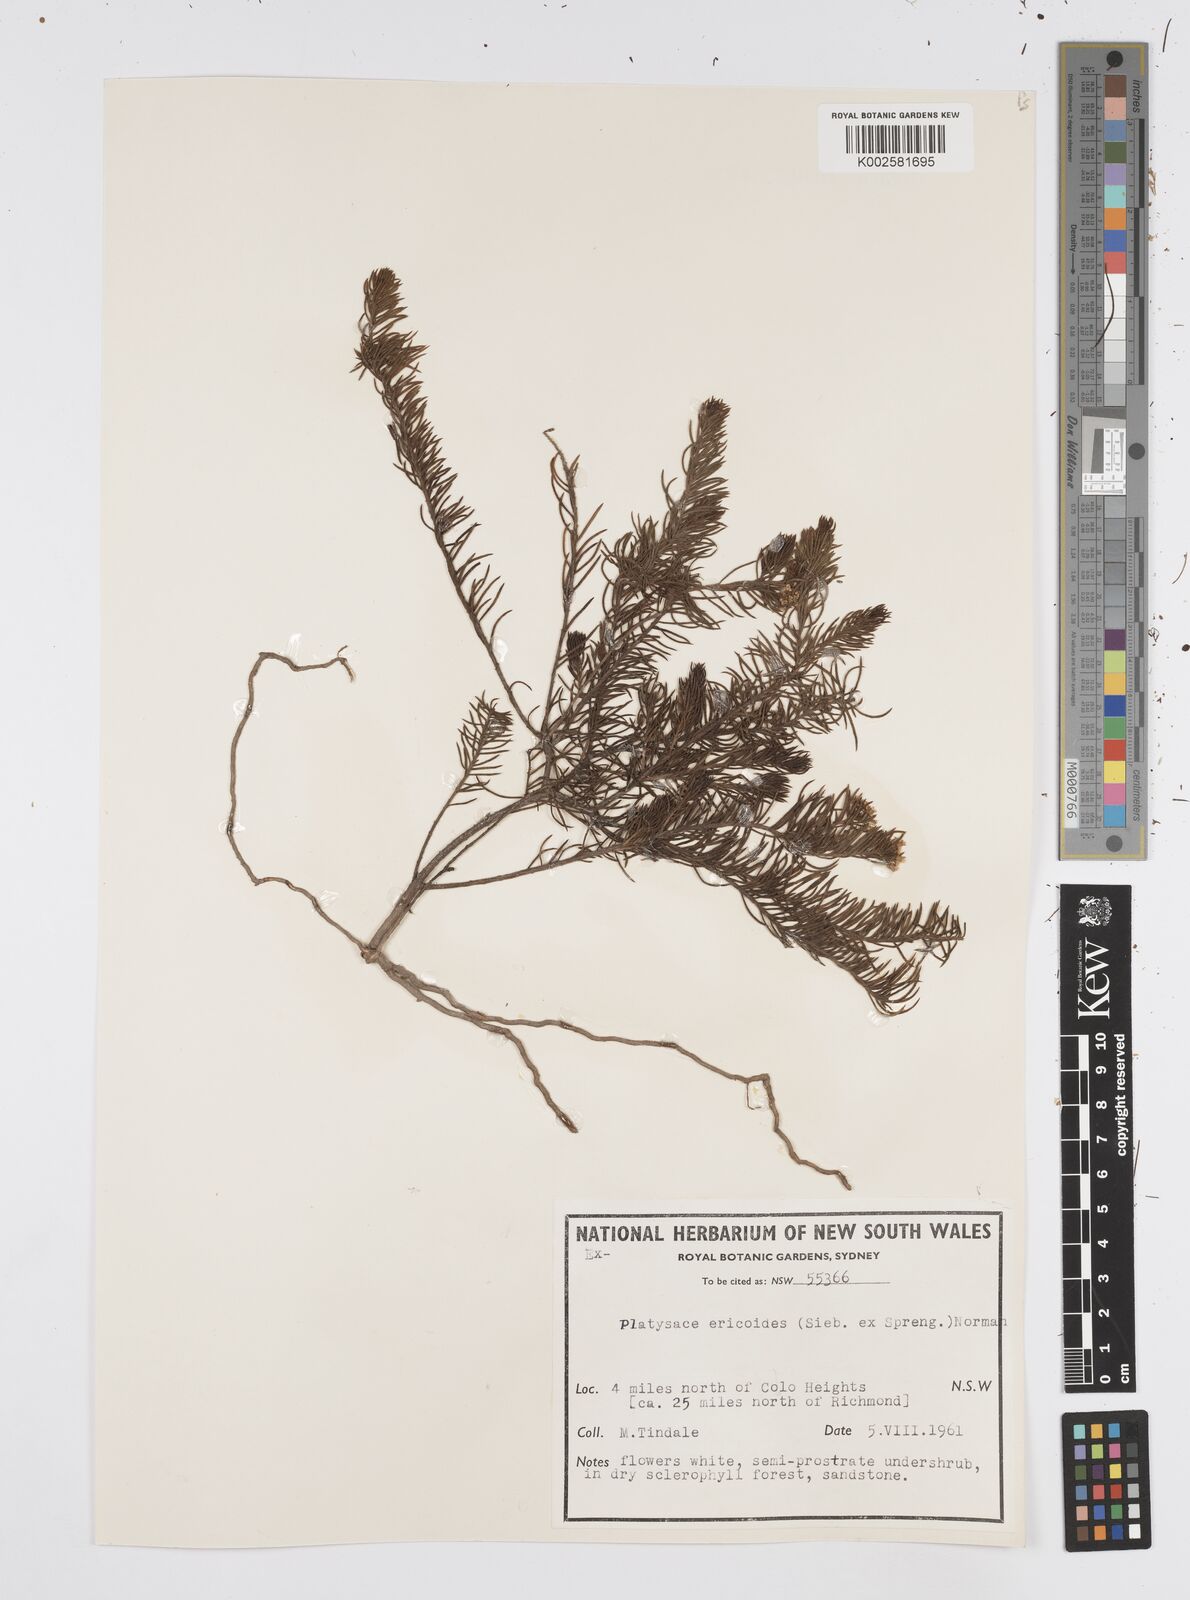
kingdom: Plantae
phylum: Tracheophyta
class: Magnoliopsida
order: Apiales
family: Apiaceae
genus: Platysace
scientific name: Platysace ericoides
